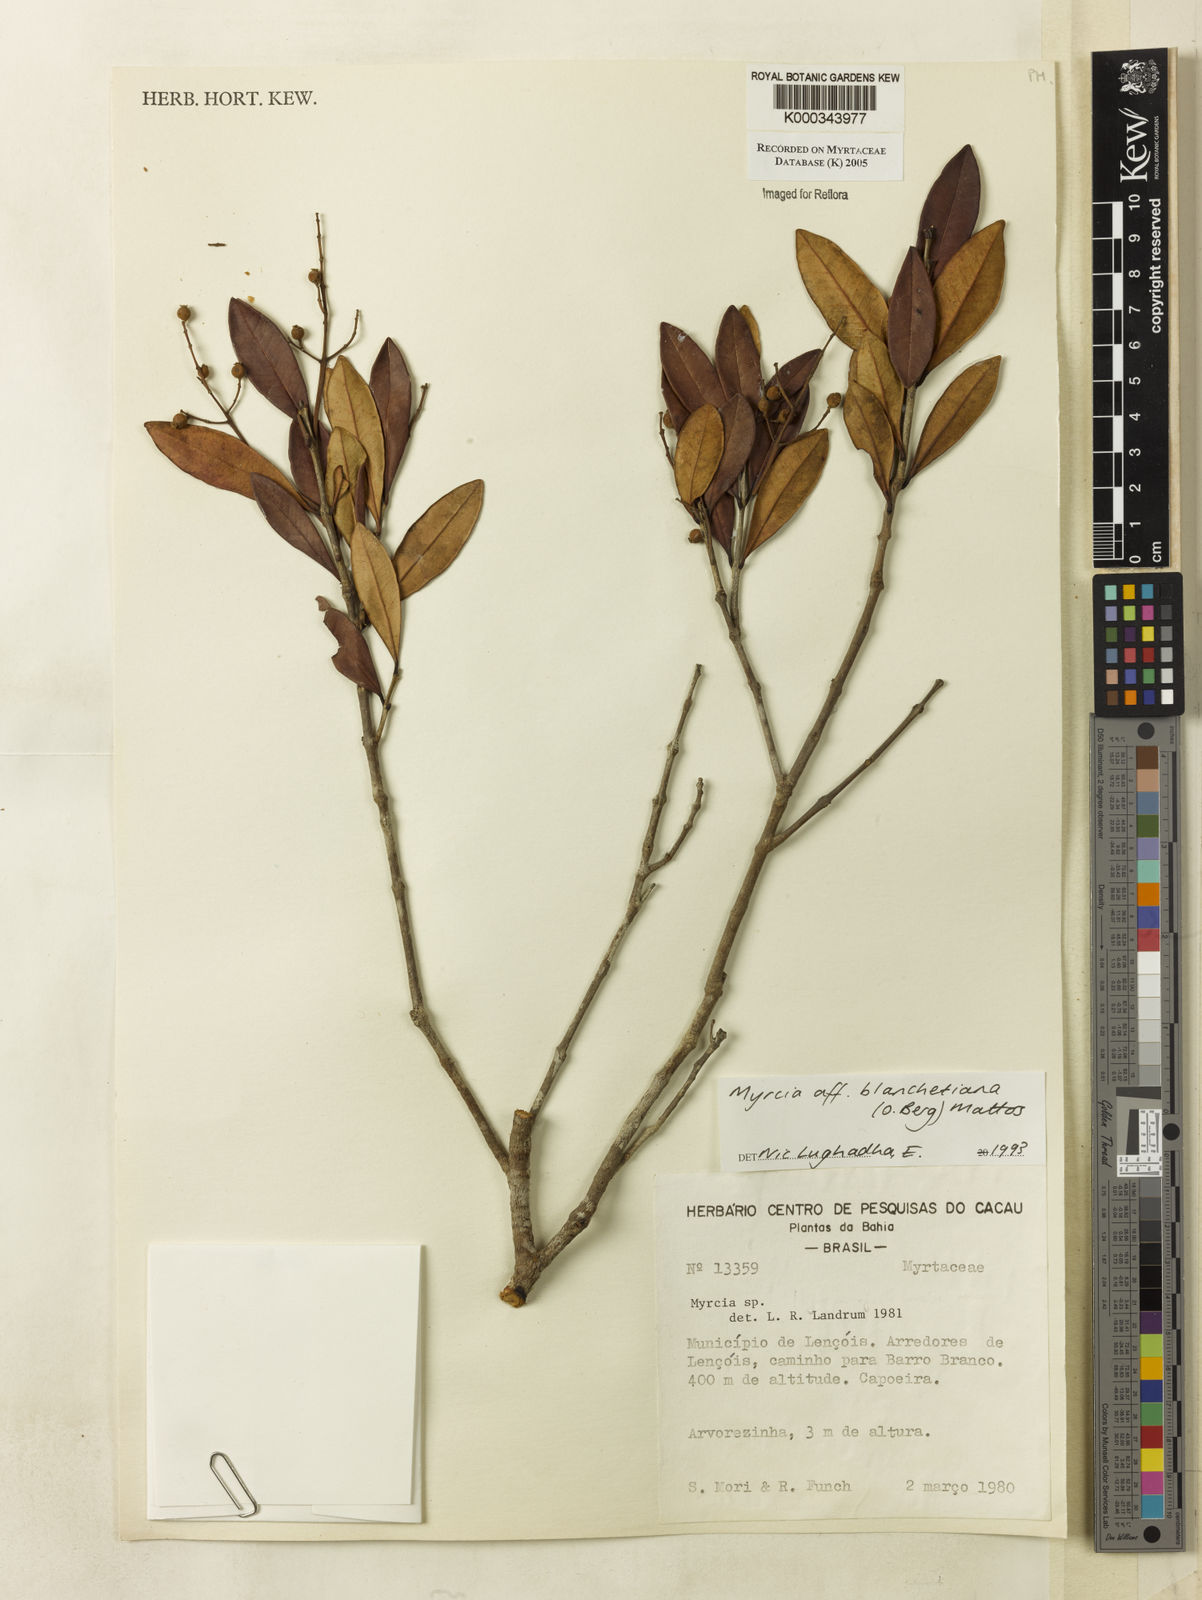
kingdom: Plantae
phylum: Tracheophyta
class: Magnoliopsida
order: Myrtales
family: Myrtaceae
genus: Myrcia
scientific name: Myrcia blanchetiana
